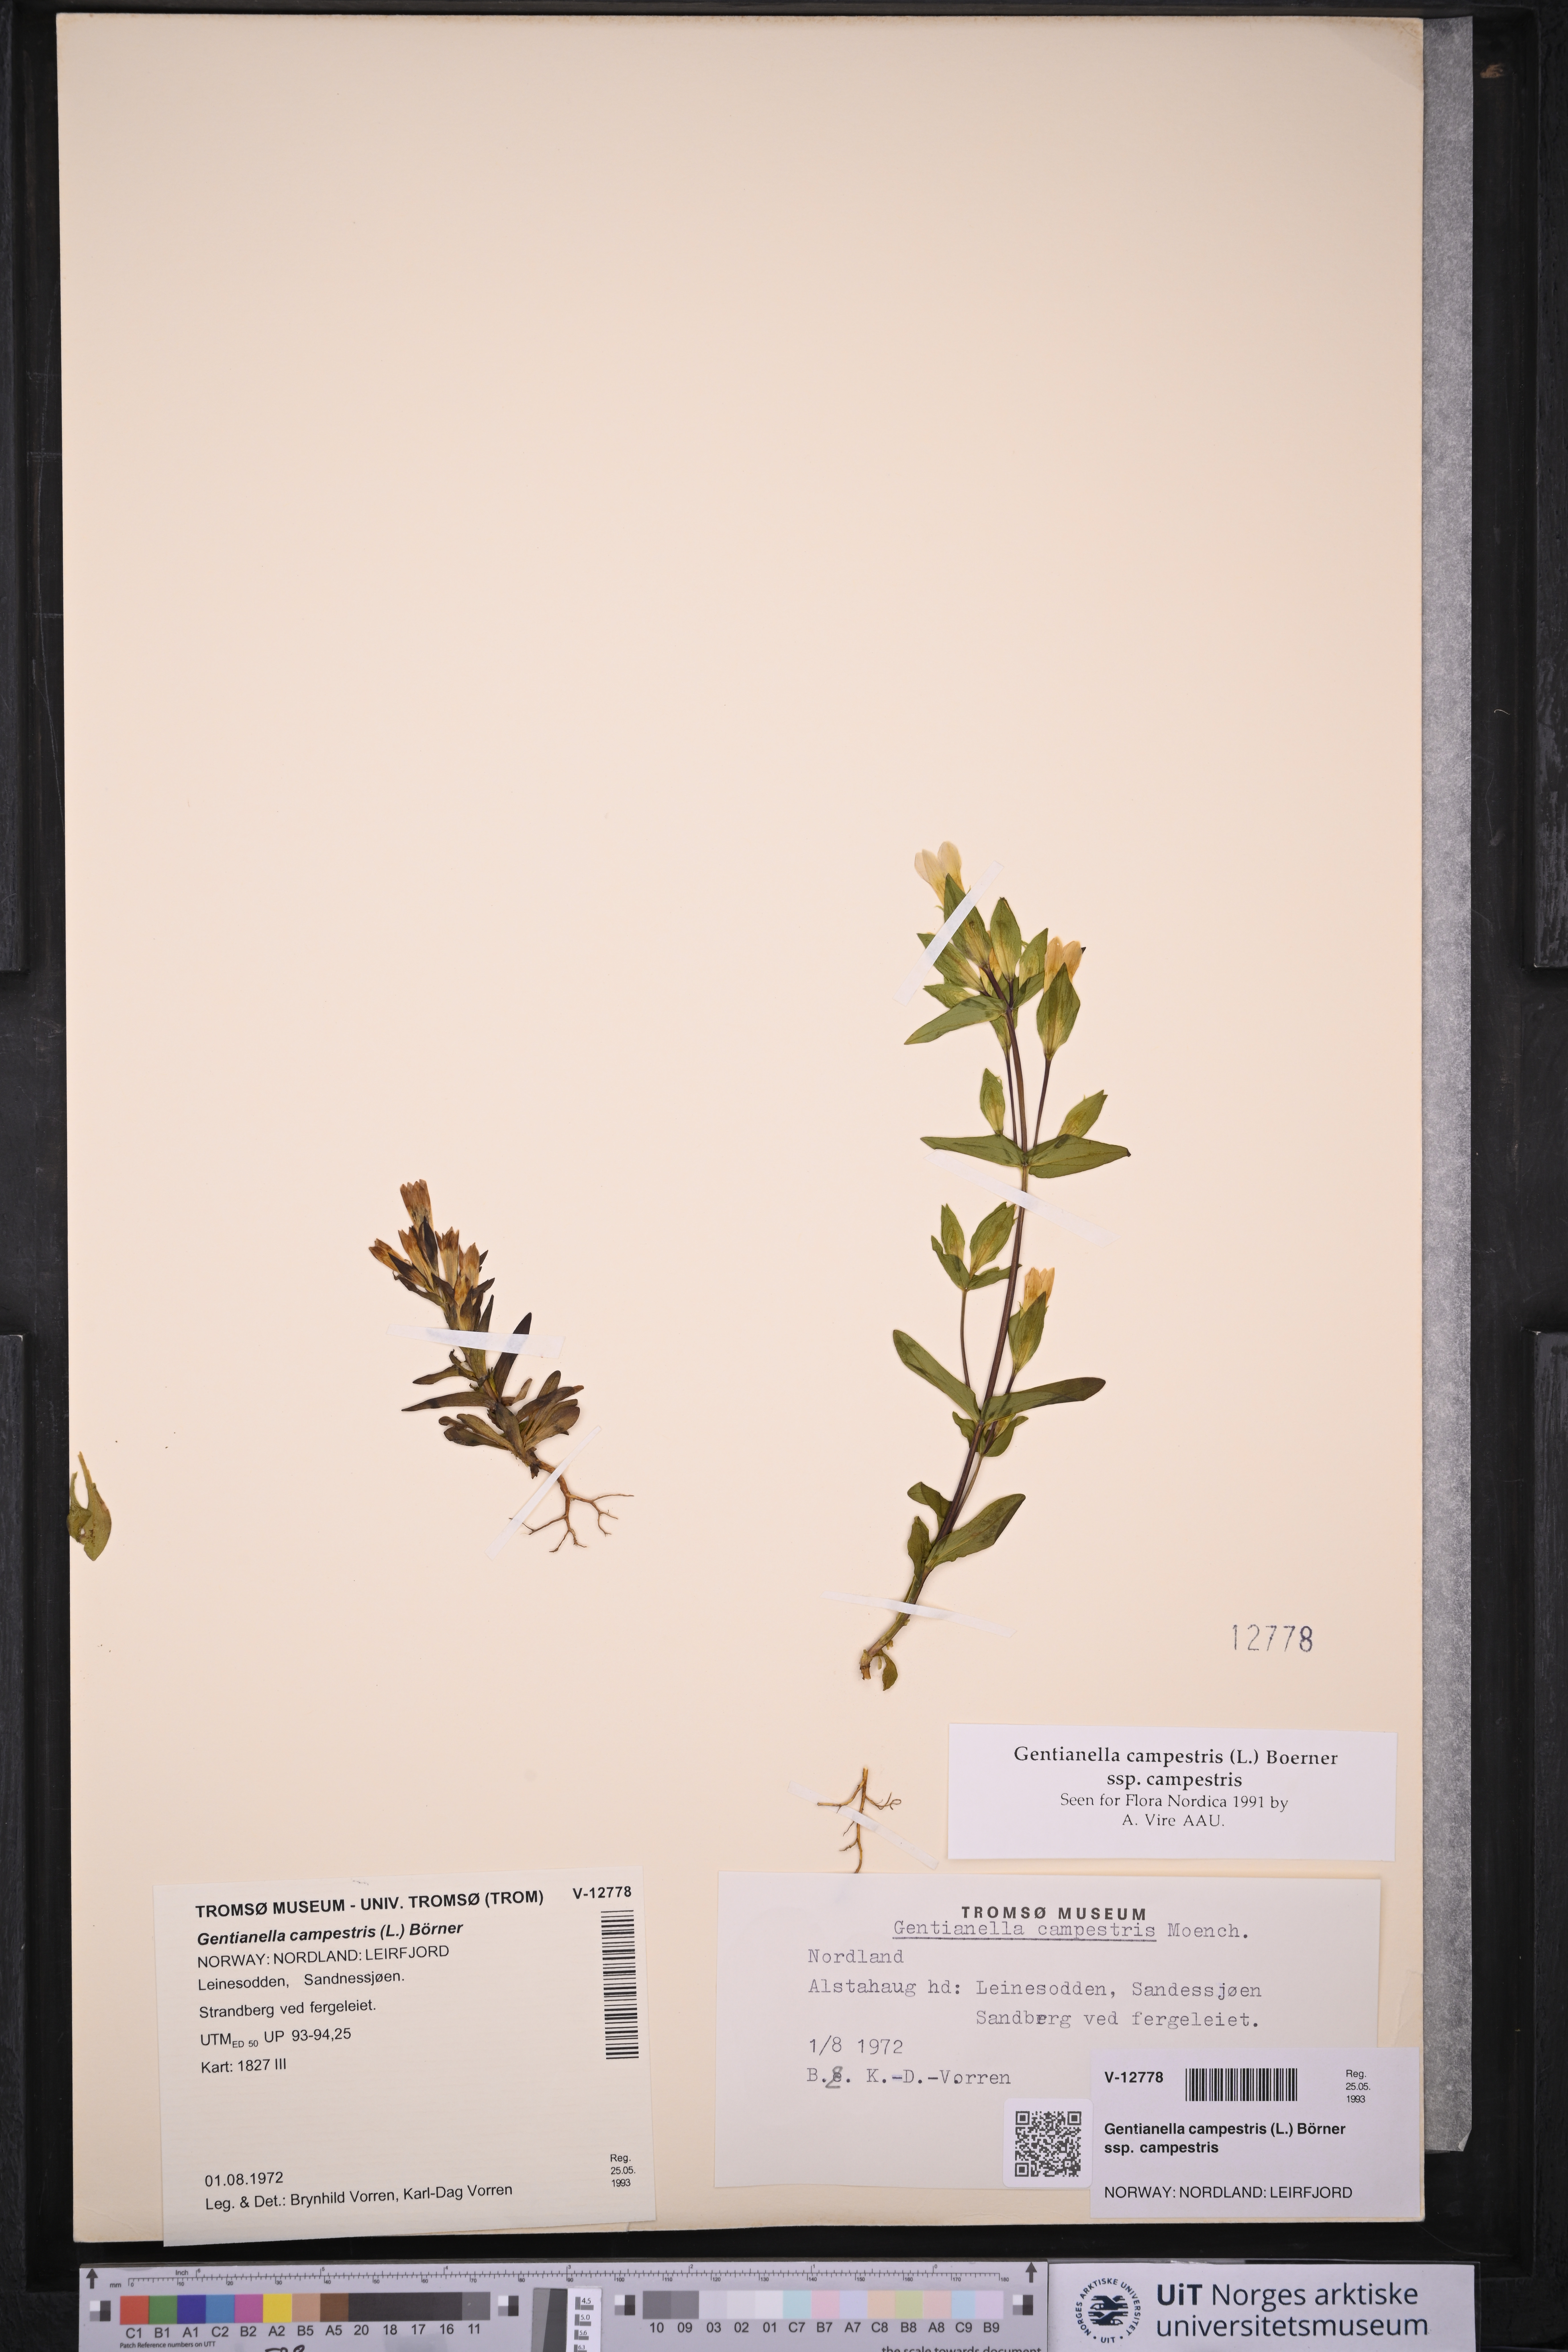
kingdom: Plantae
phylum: Tracheophyta
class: Magnoliopsida
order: Gentianales
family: Gentianaceae
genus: Gentianella
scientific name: Gentianella campestris
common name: Field gentian
